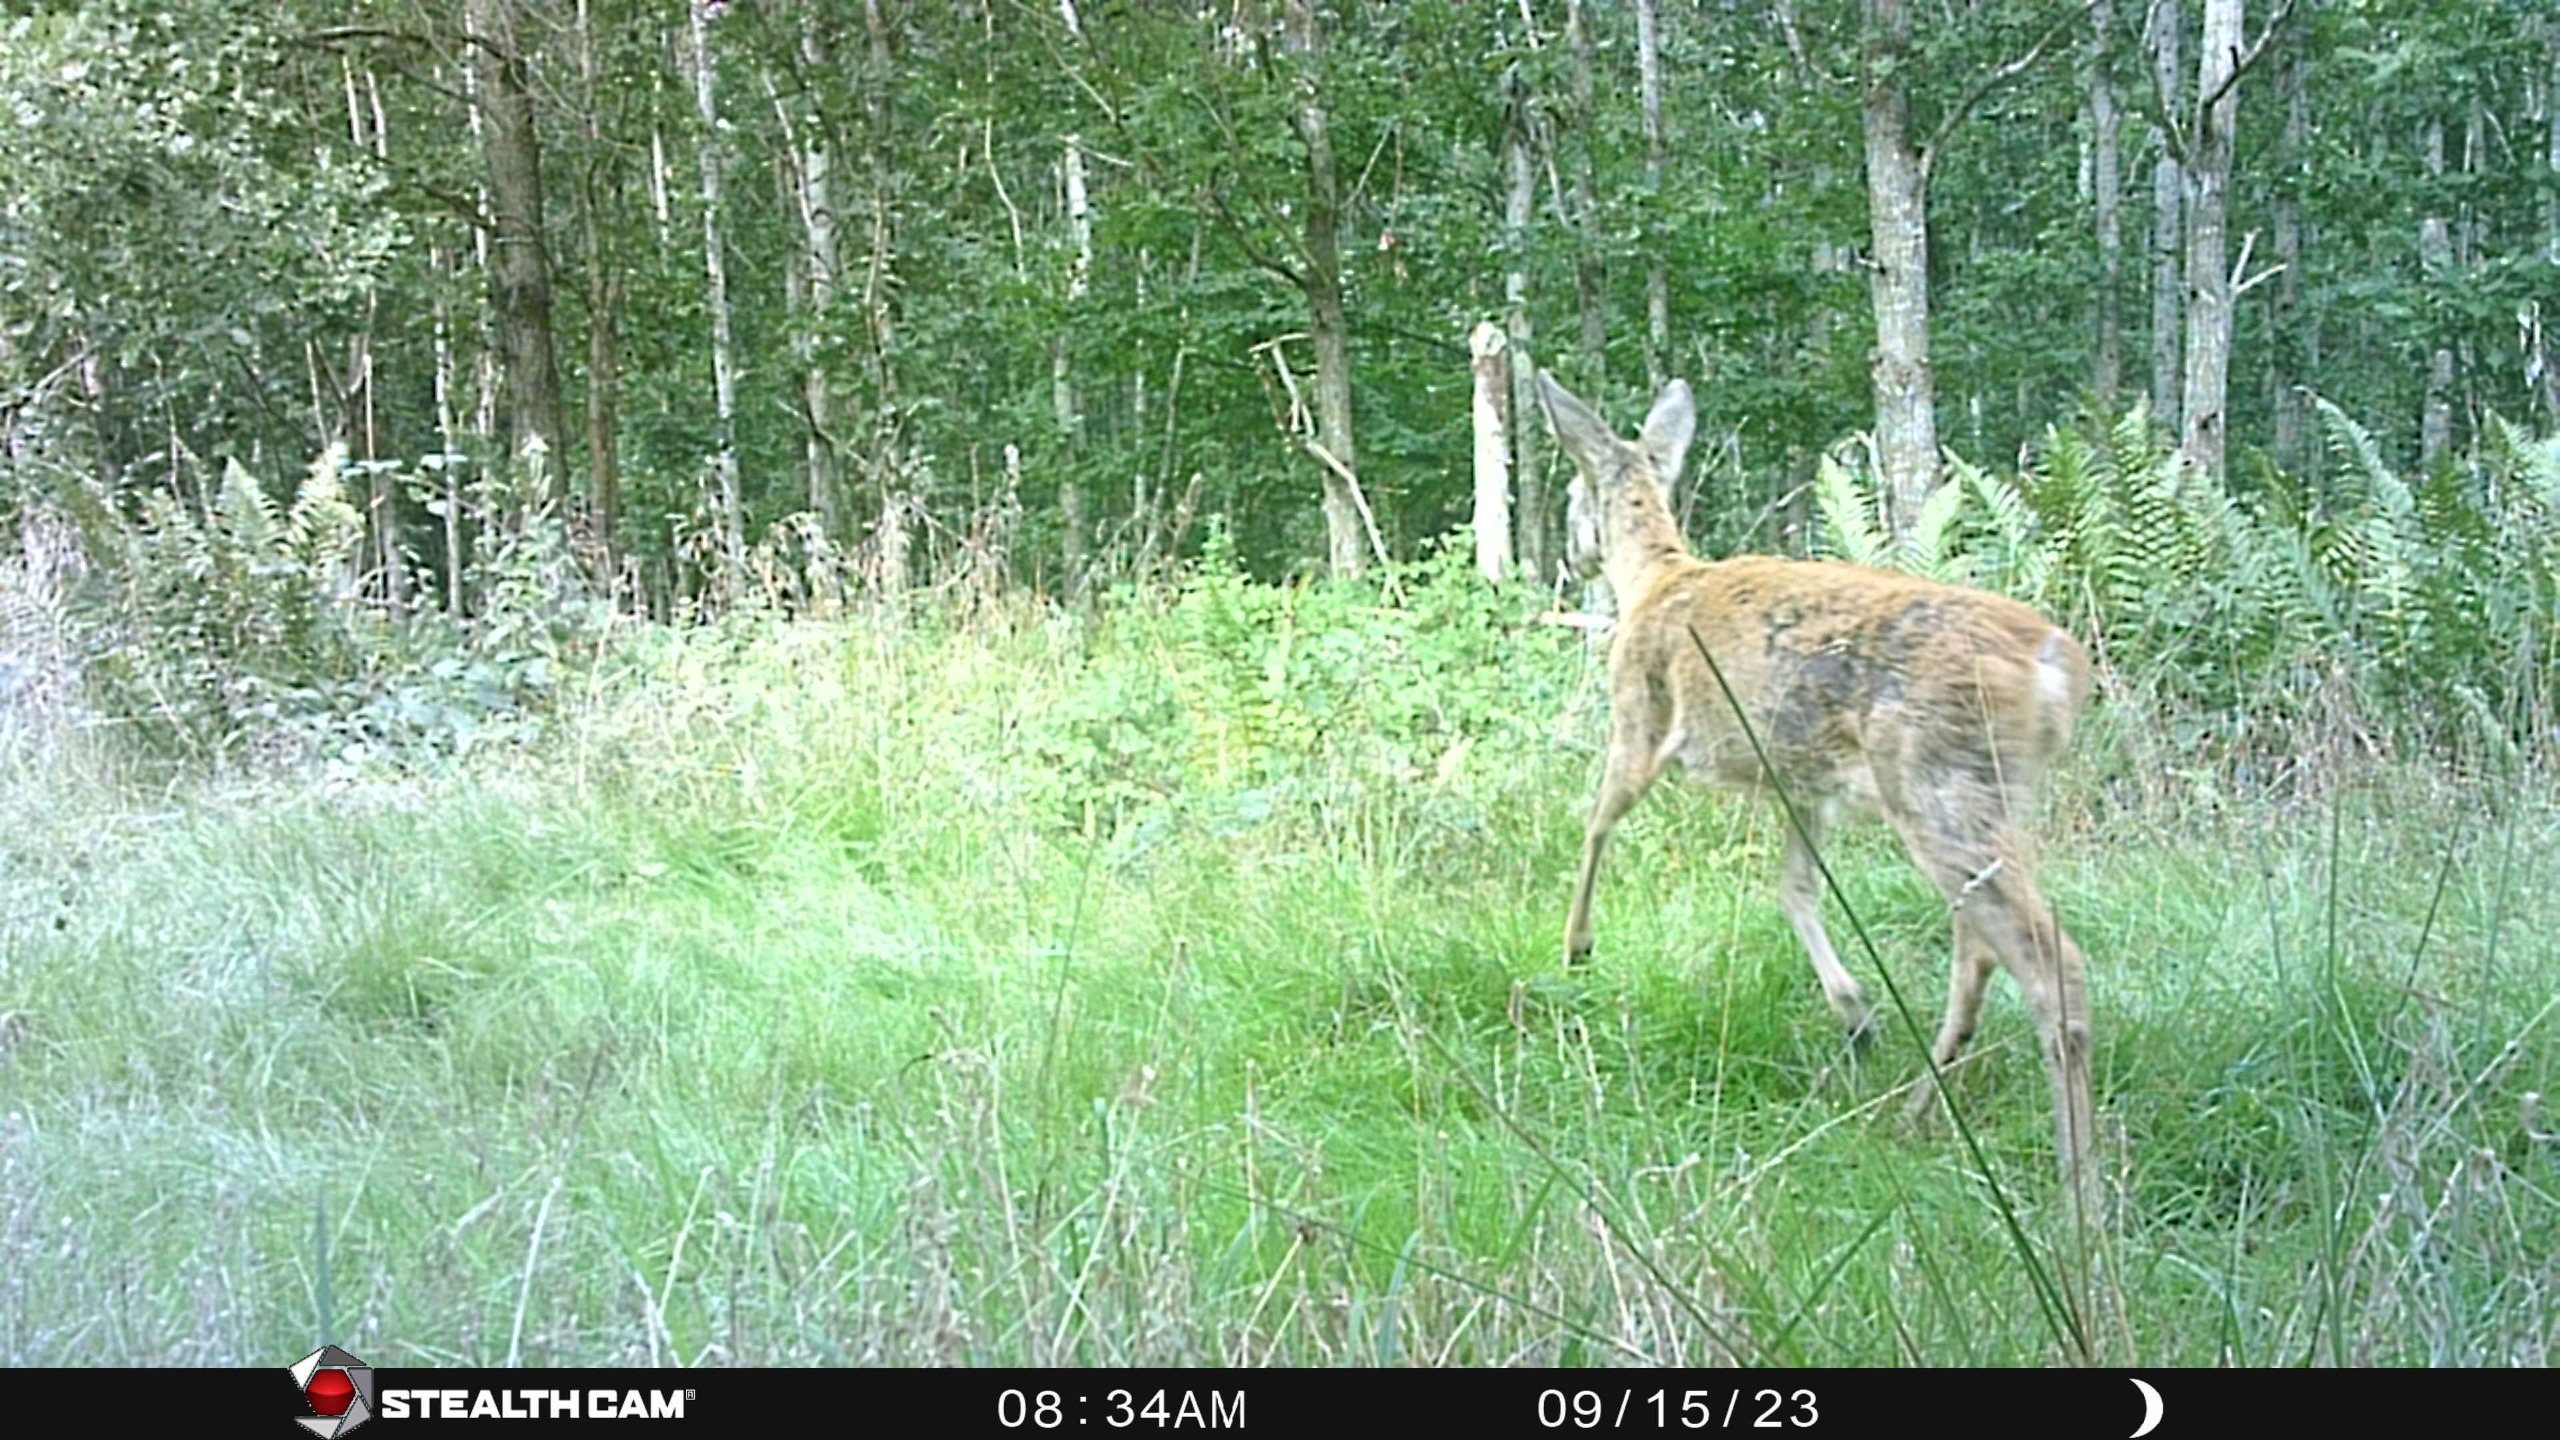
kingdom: Animalia
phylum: Chordata
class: Mammalia
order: Artiodactyla
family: Cervidae
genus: Capreolus
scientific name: Capreolus capreolus
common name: Rådyr
